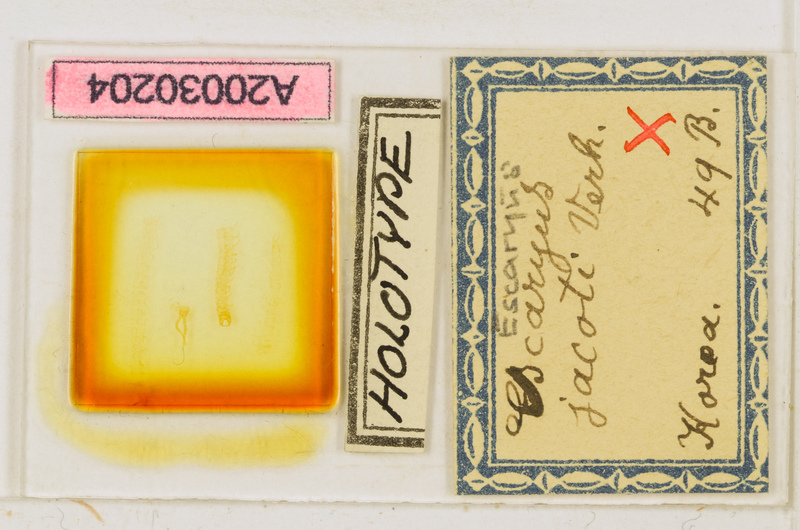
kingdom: Animalia
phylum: Arthropoda
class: Chilopoda
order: Geophilomorpha
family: Schendylidae
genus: Escaryus
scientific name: Escaryus jacoti
